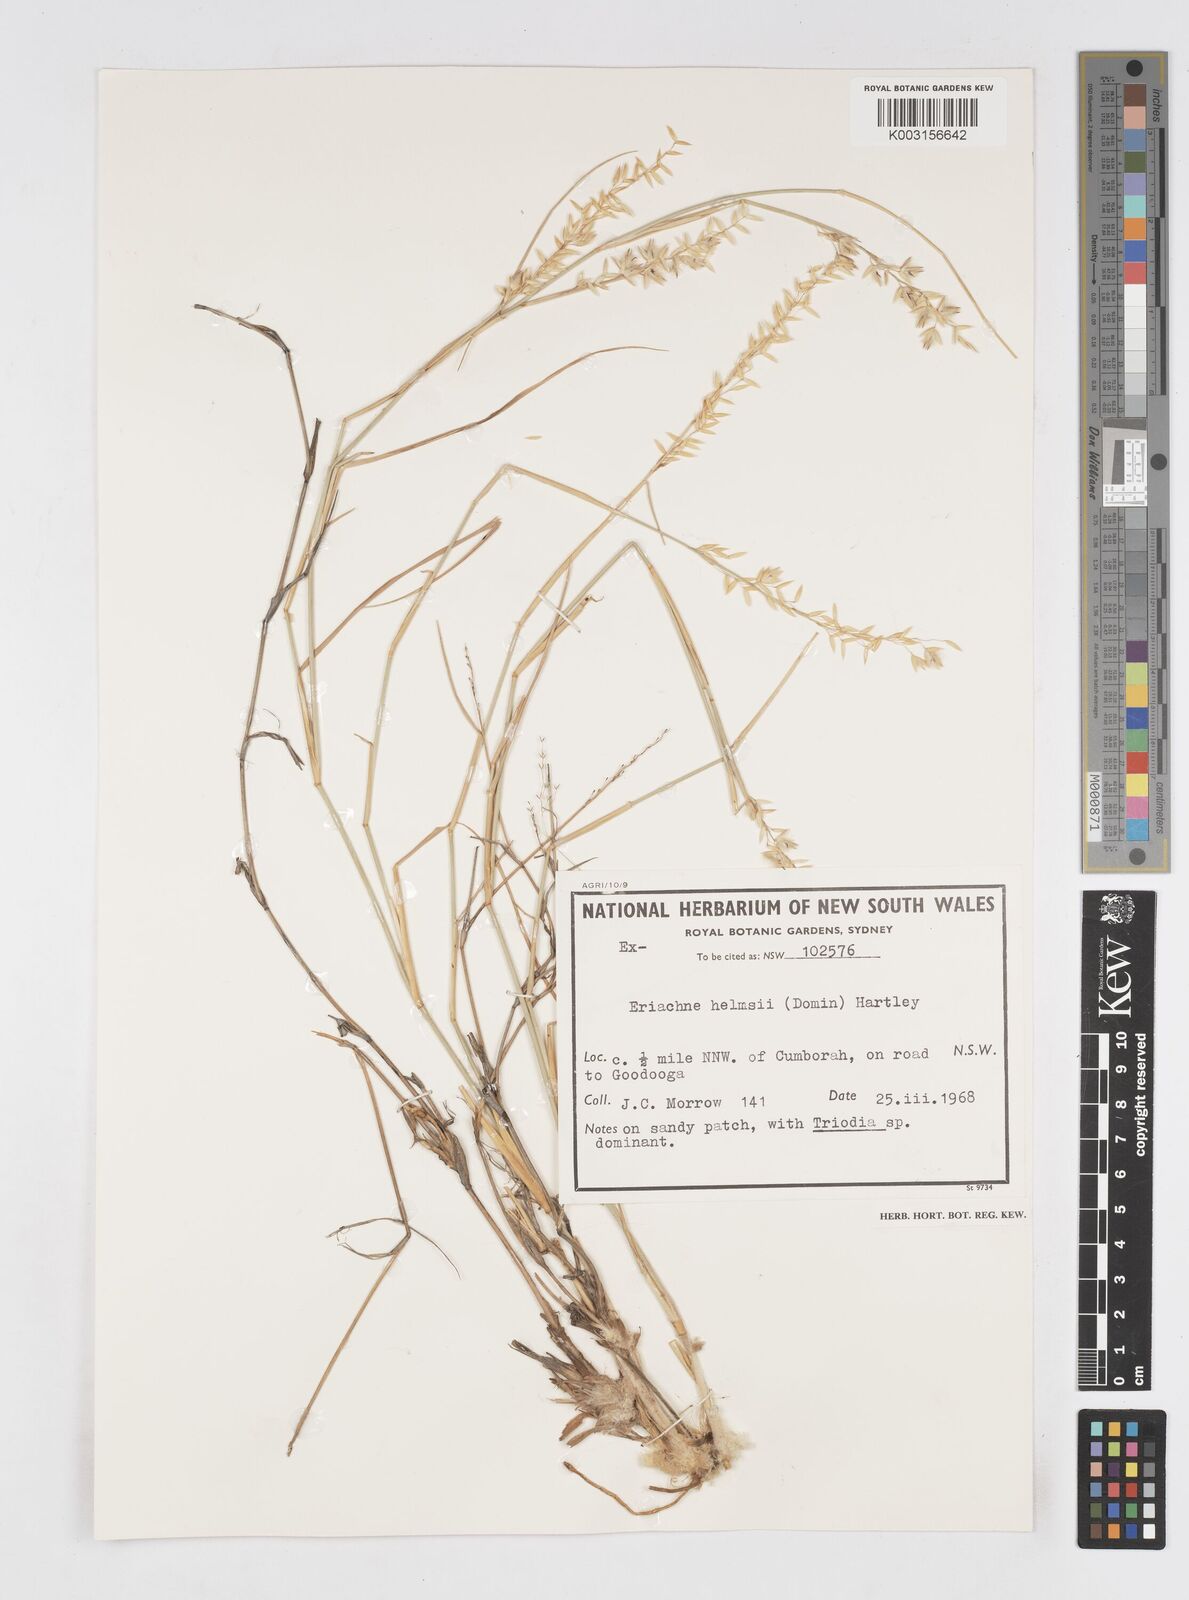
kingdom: Plantae
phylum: Tracheophyta
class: Liliopsida
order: Poales
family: Poaceae
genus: Eriachne
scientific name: Eriachne helmsii
